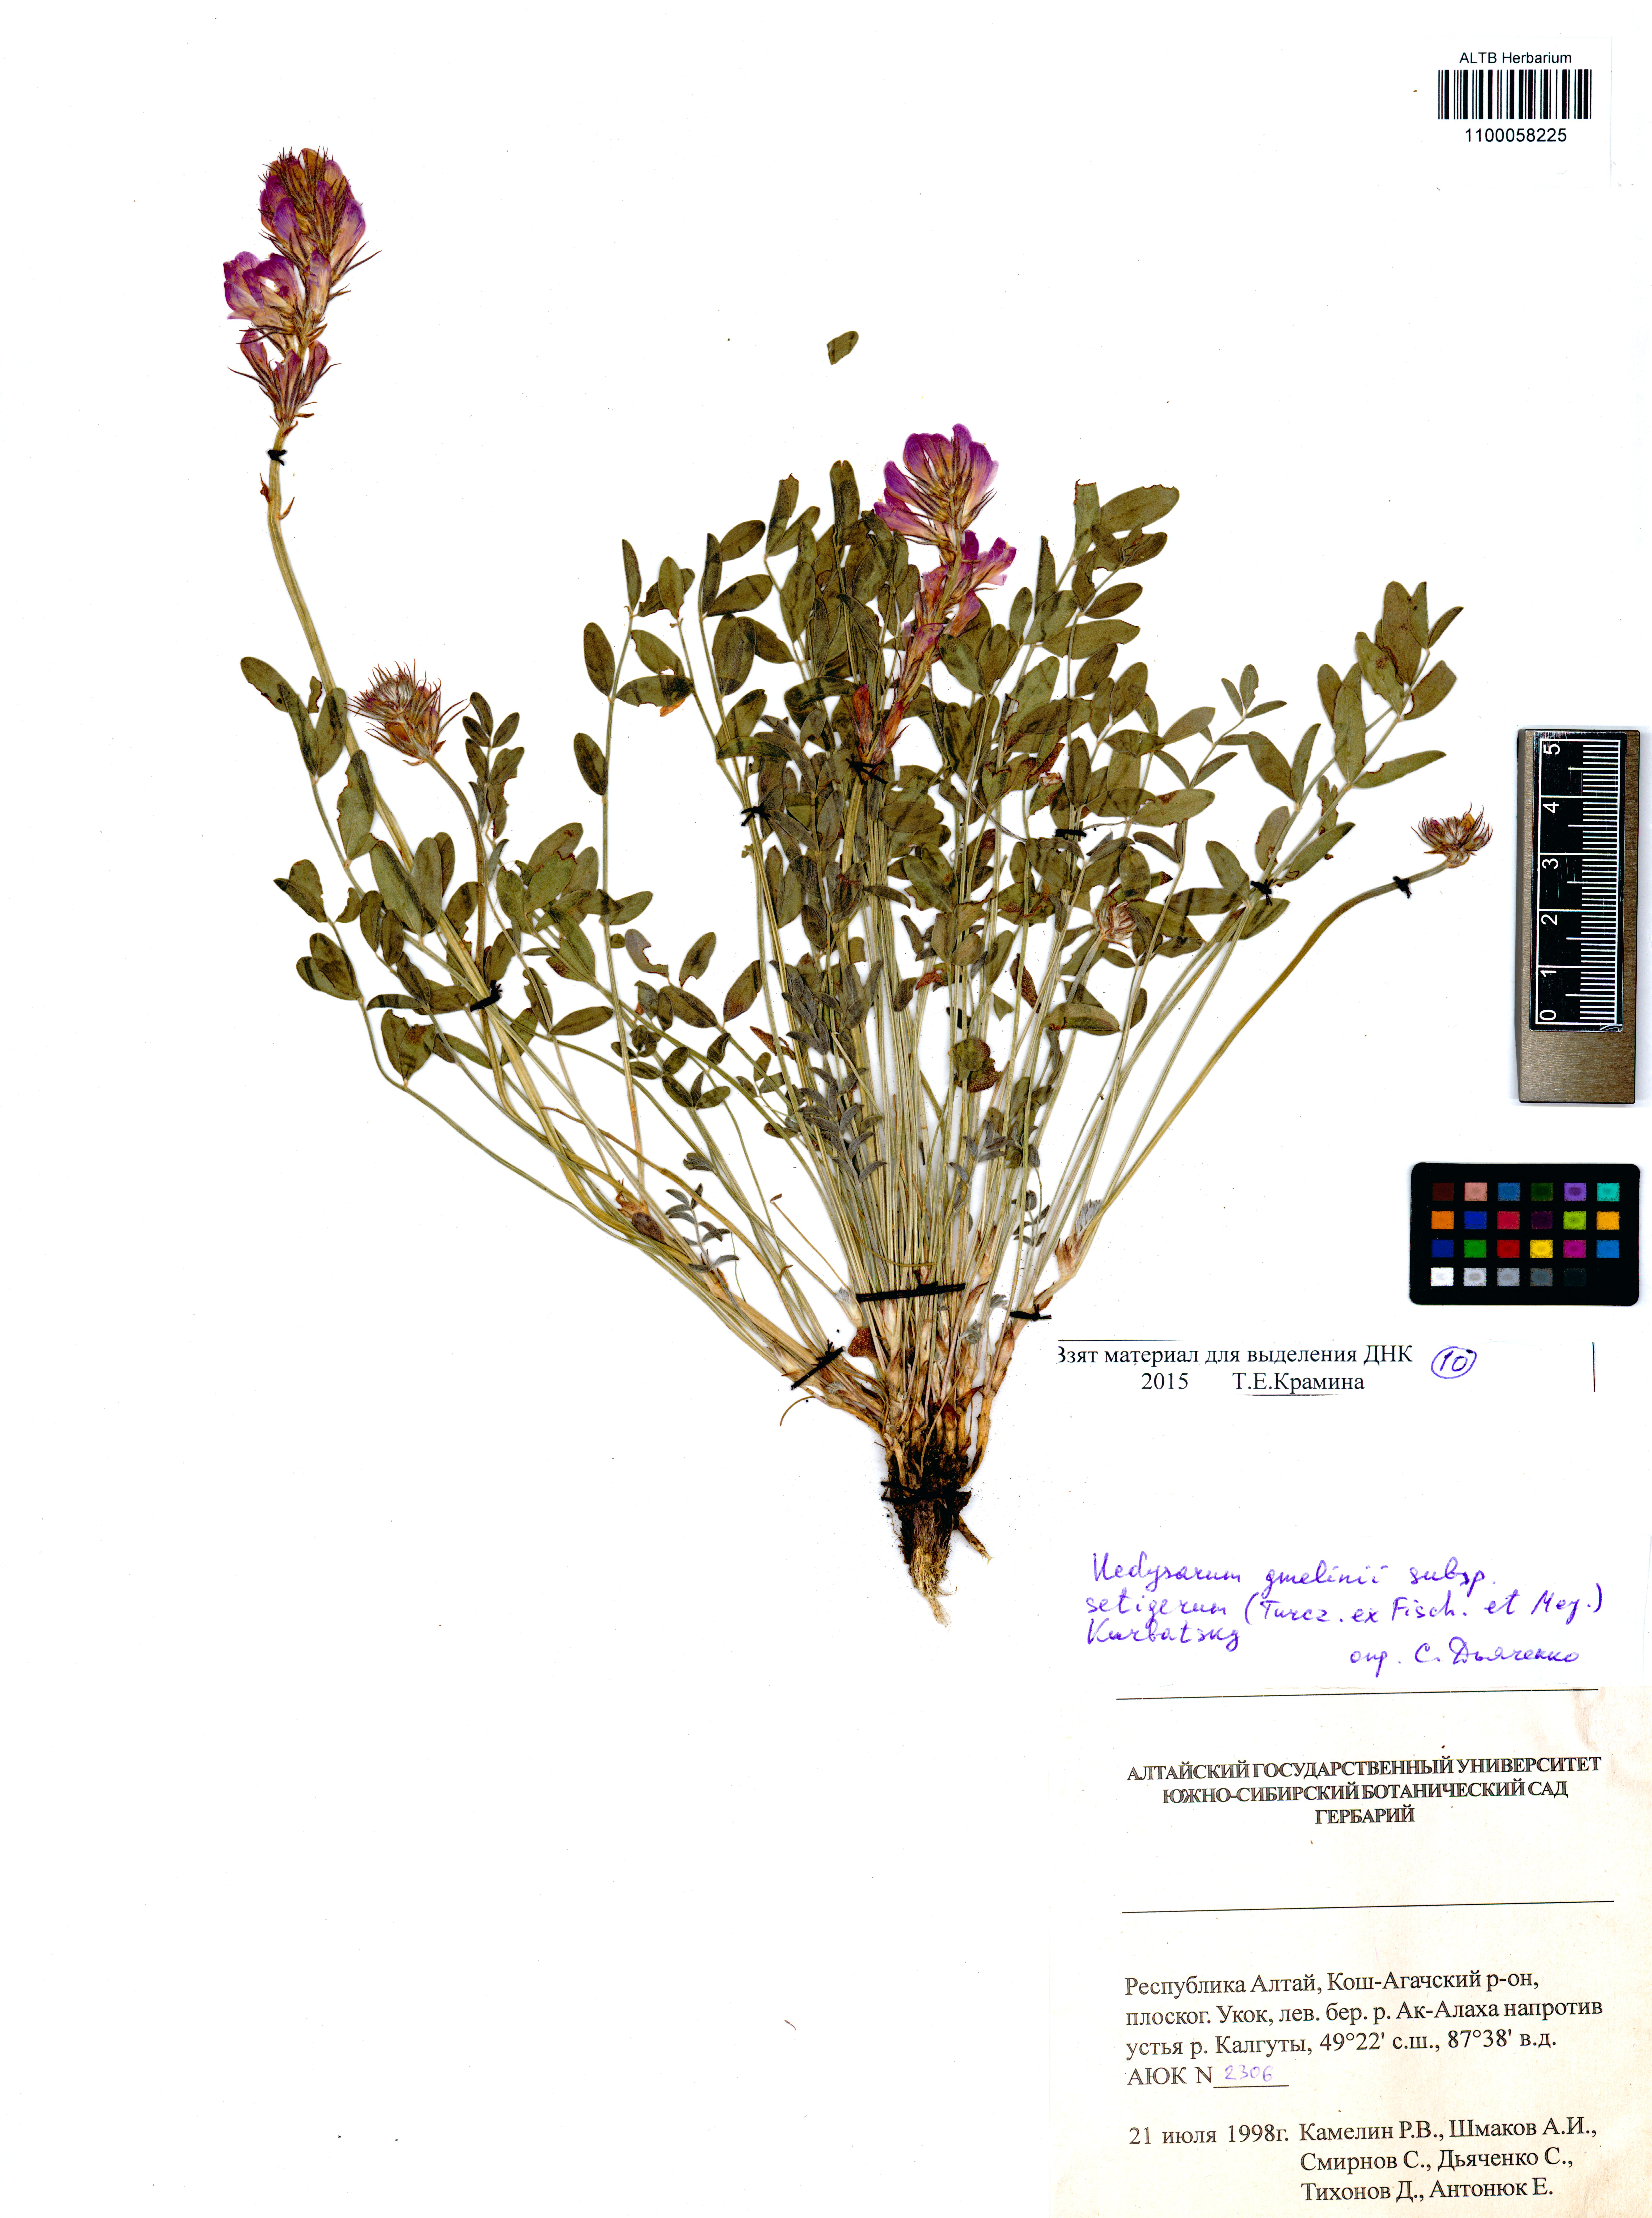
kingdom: Plantae
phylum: Tracheophyta
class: Magnoliopsida
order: Fabales
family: Fabaceae
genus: Hedysarum
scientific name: Hedysarum setigerum
